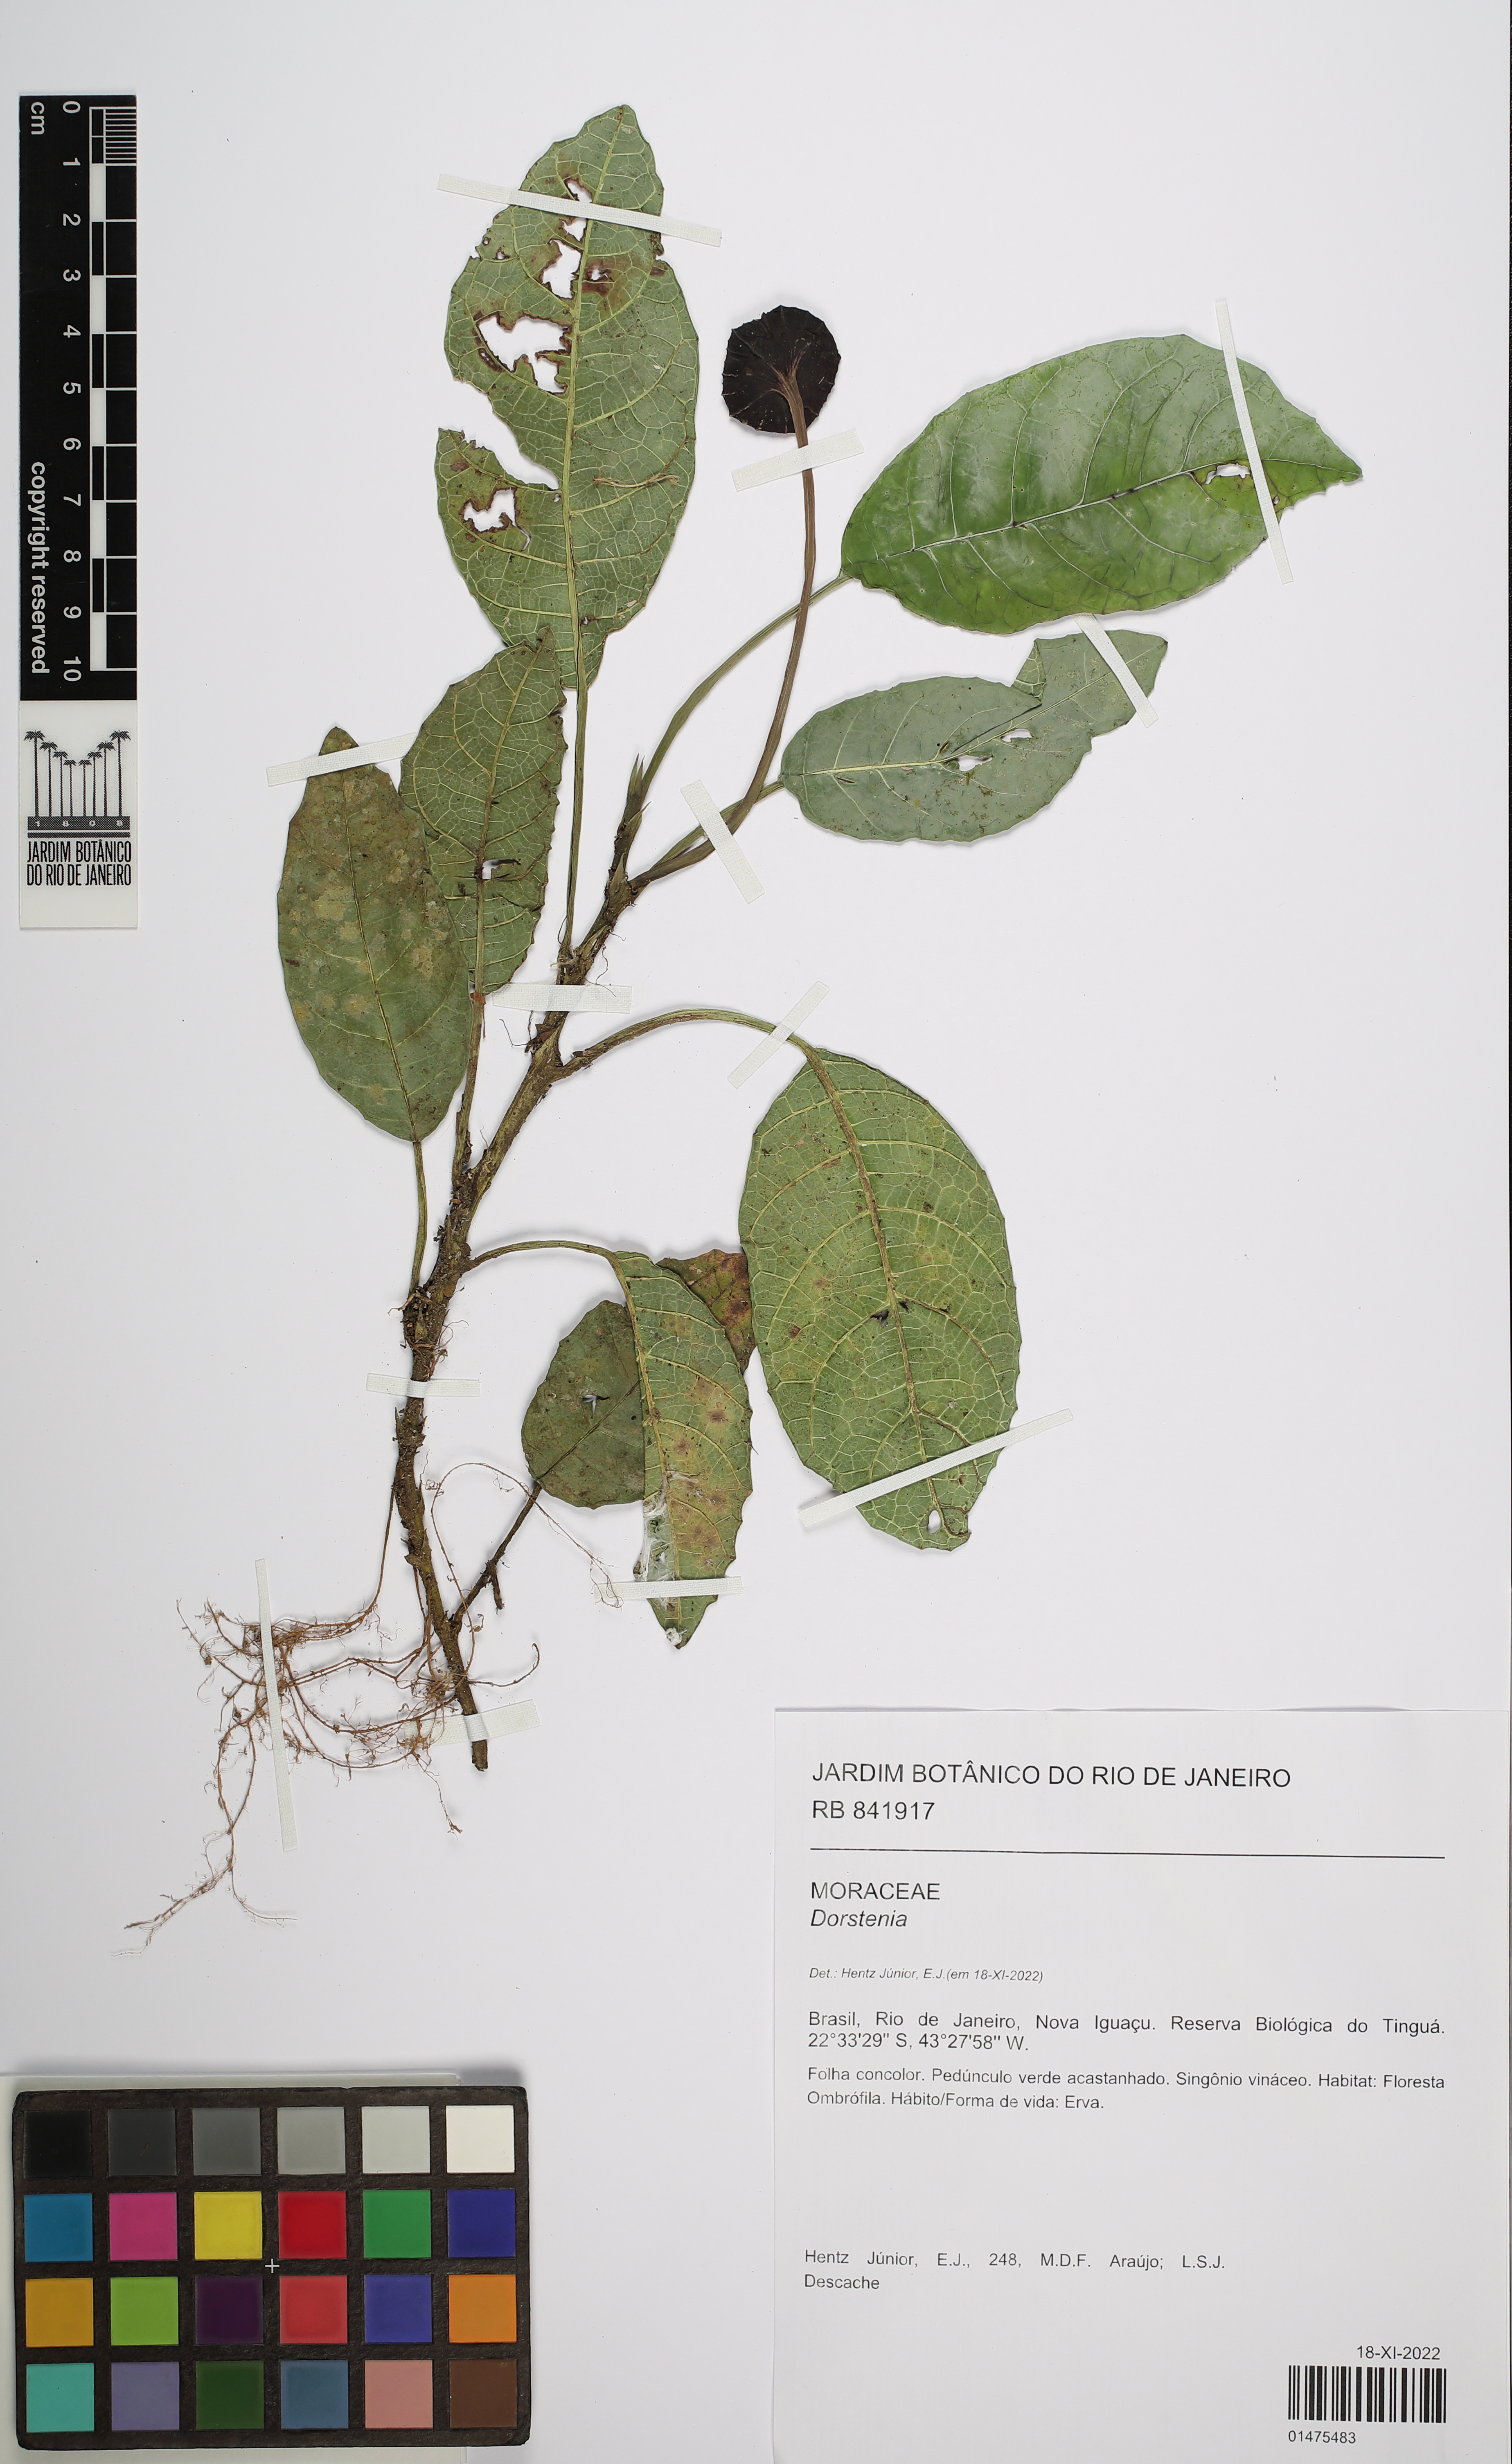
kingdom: Plantae
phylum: Tracheophyta
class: Magnoliopsida
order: Rosales
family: Moraceae
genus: Dorstenia
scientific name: Dorstenia
